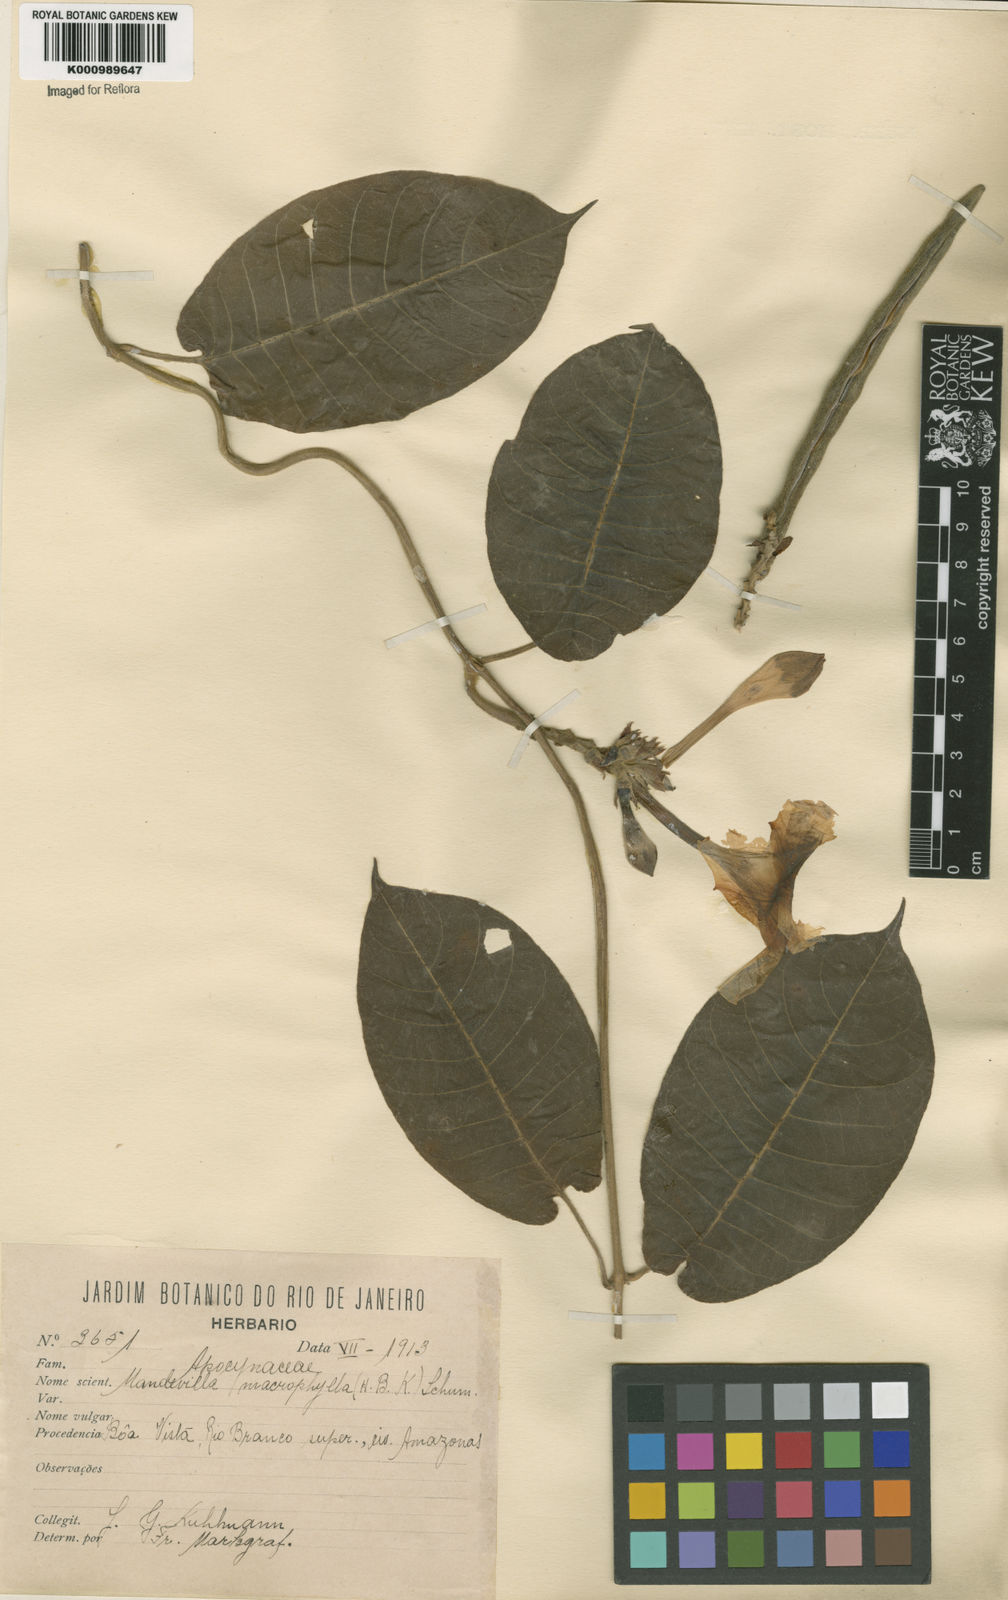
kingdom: Plantae
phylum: Tracheophyta
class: Magnoliopsida
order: Gentianales
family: Apocynaceae
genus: Mandevilla
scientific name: Mandevilla hirsuta
